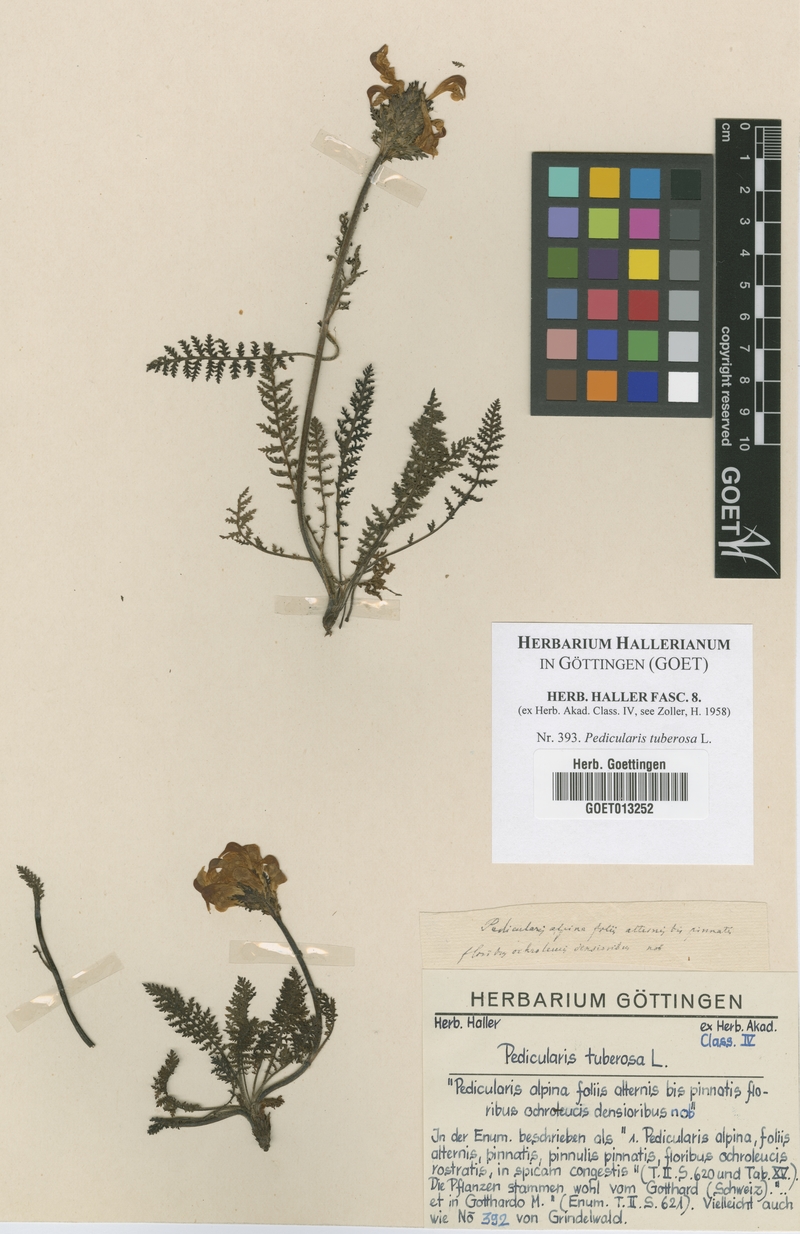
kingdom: Plantae
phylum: Tracheophyta
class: Magnoliopsida
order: Lamiales
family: Orobanchaceae
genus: Pedicularis
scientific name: Pedicularis tuberosa
